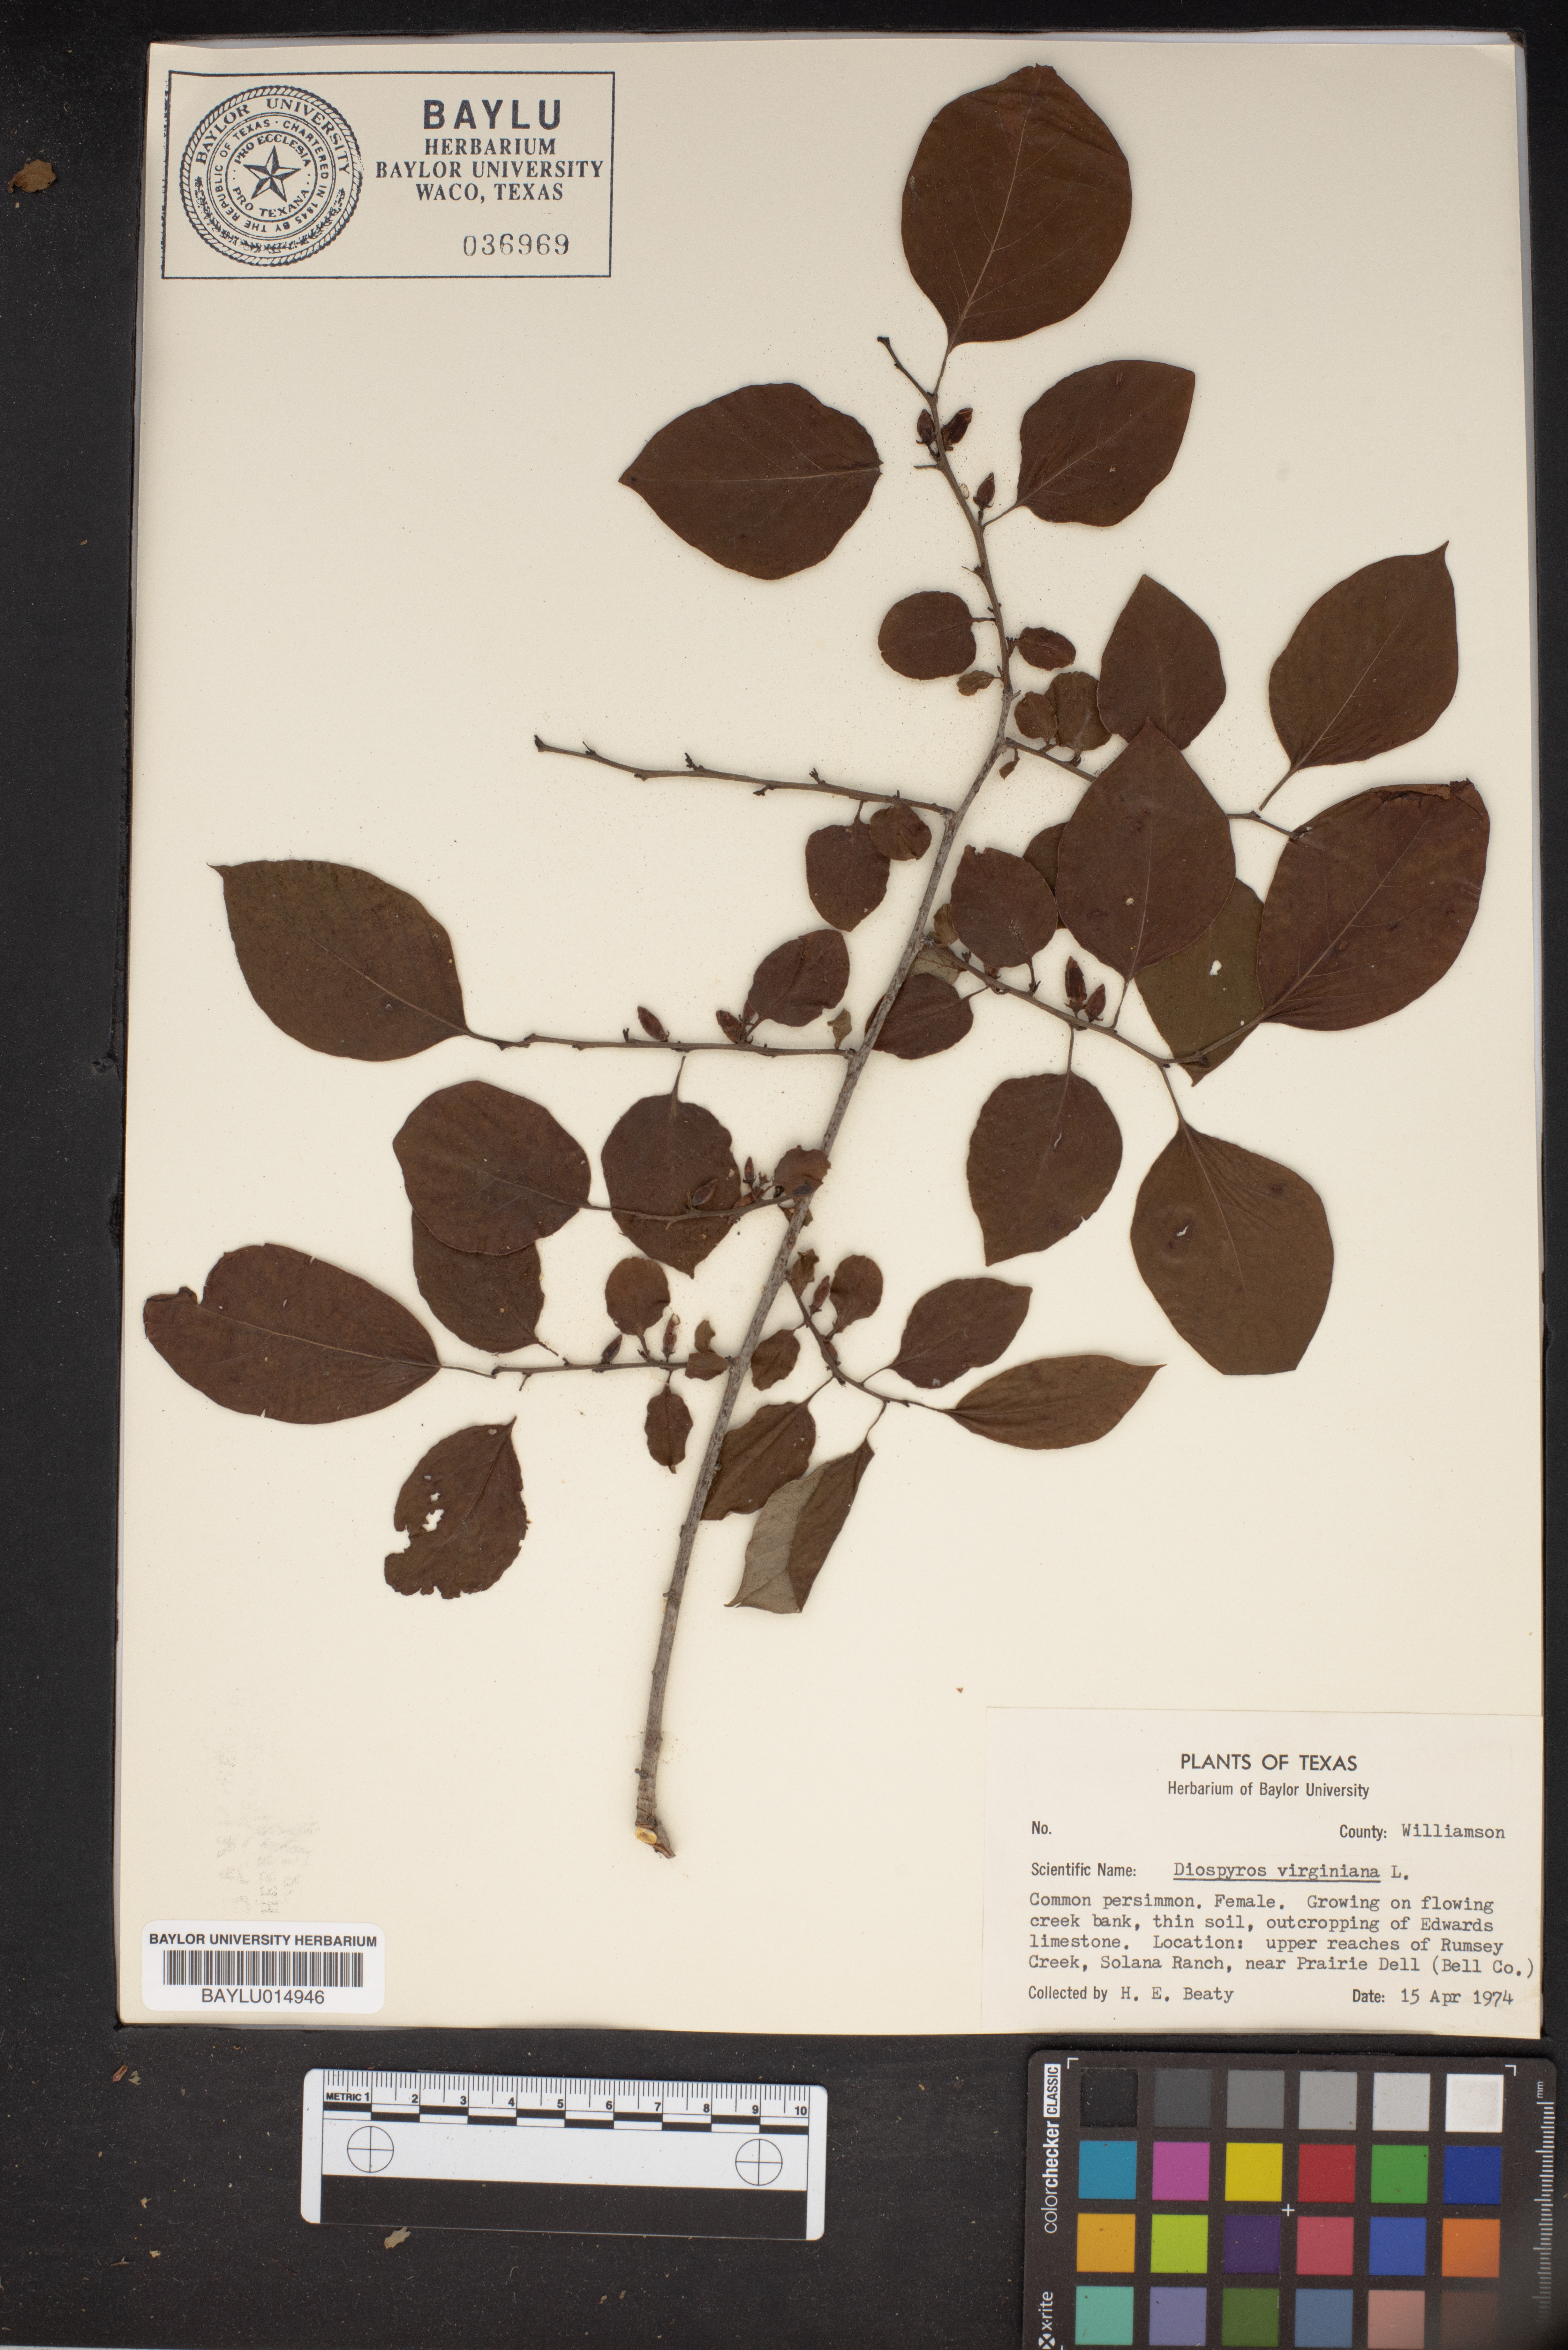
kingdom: Plantae
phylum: Tracheophyta
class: Magnoliopsida
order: Ericales
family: Ebenaceae
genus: Diospyros
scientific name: Diospyros virginiana
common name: Persimmon
